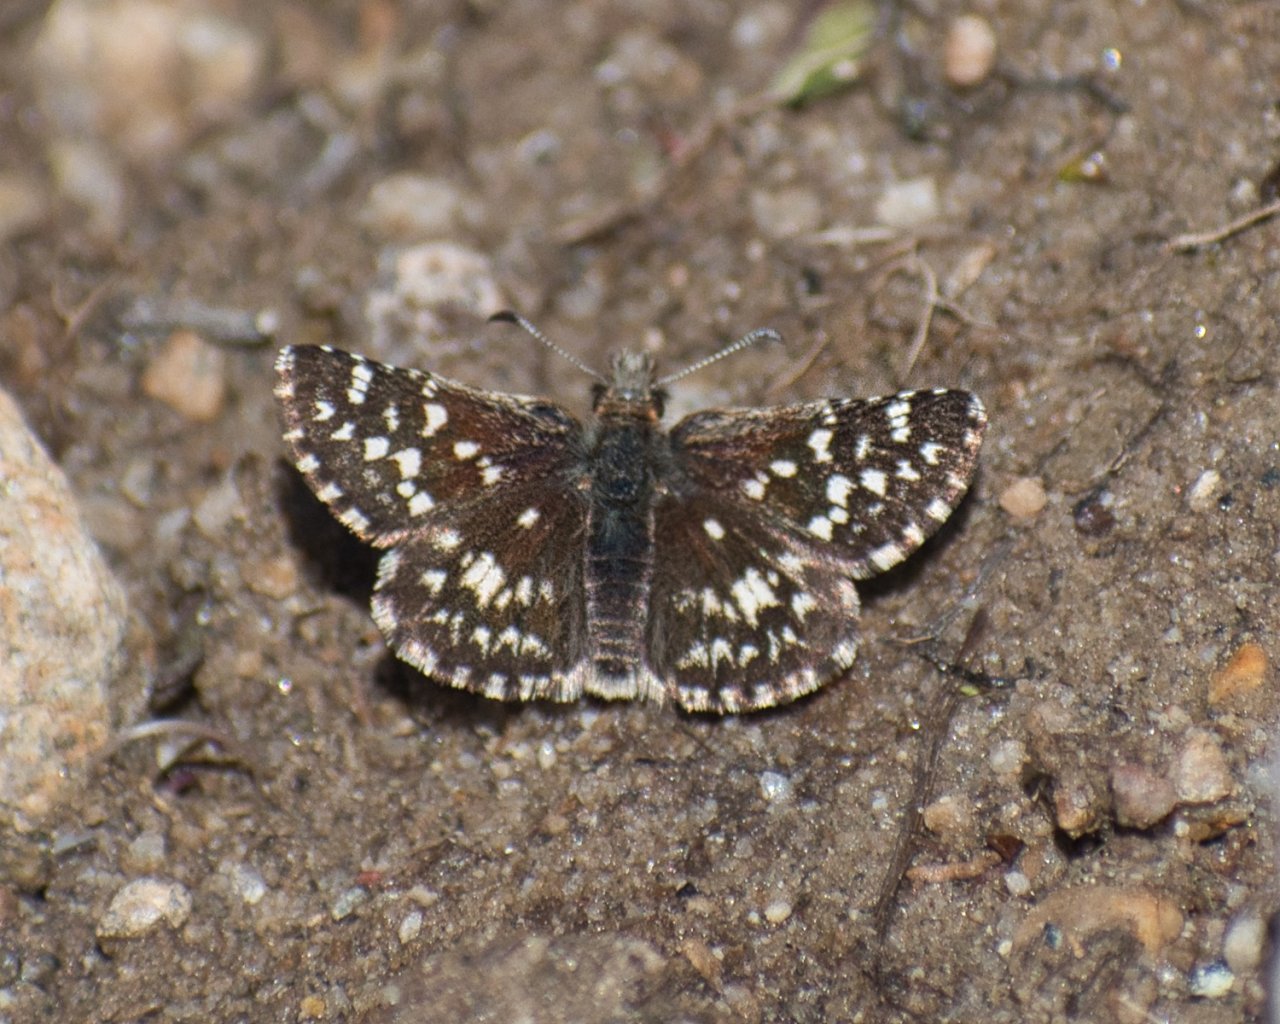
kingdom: Animalia
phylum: Arthropoda
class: Insecta
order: Lepidoptera
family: Hesperiidae
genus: Pyrgus
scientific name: Pyrgus ruralis
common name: Two-banded Checkered-Skipper
